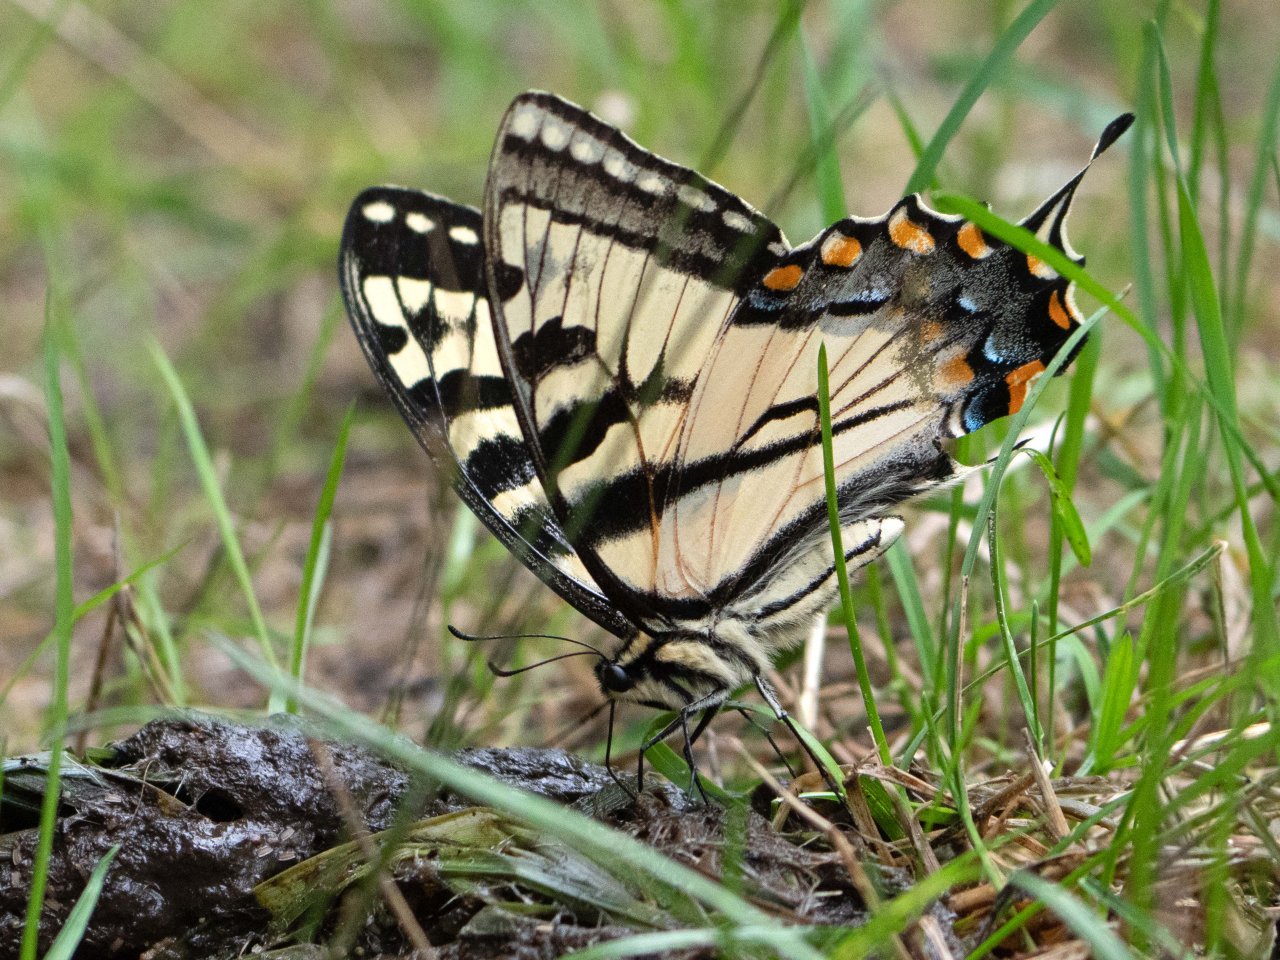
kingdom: Animalia
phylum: Arthropoda
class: Insecta
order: Lepidoptera
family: Papilionidae
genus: Pterourus
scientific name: Pterourus glaucus
